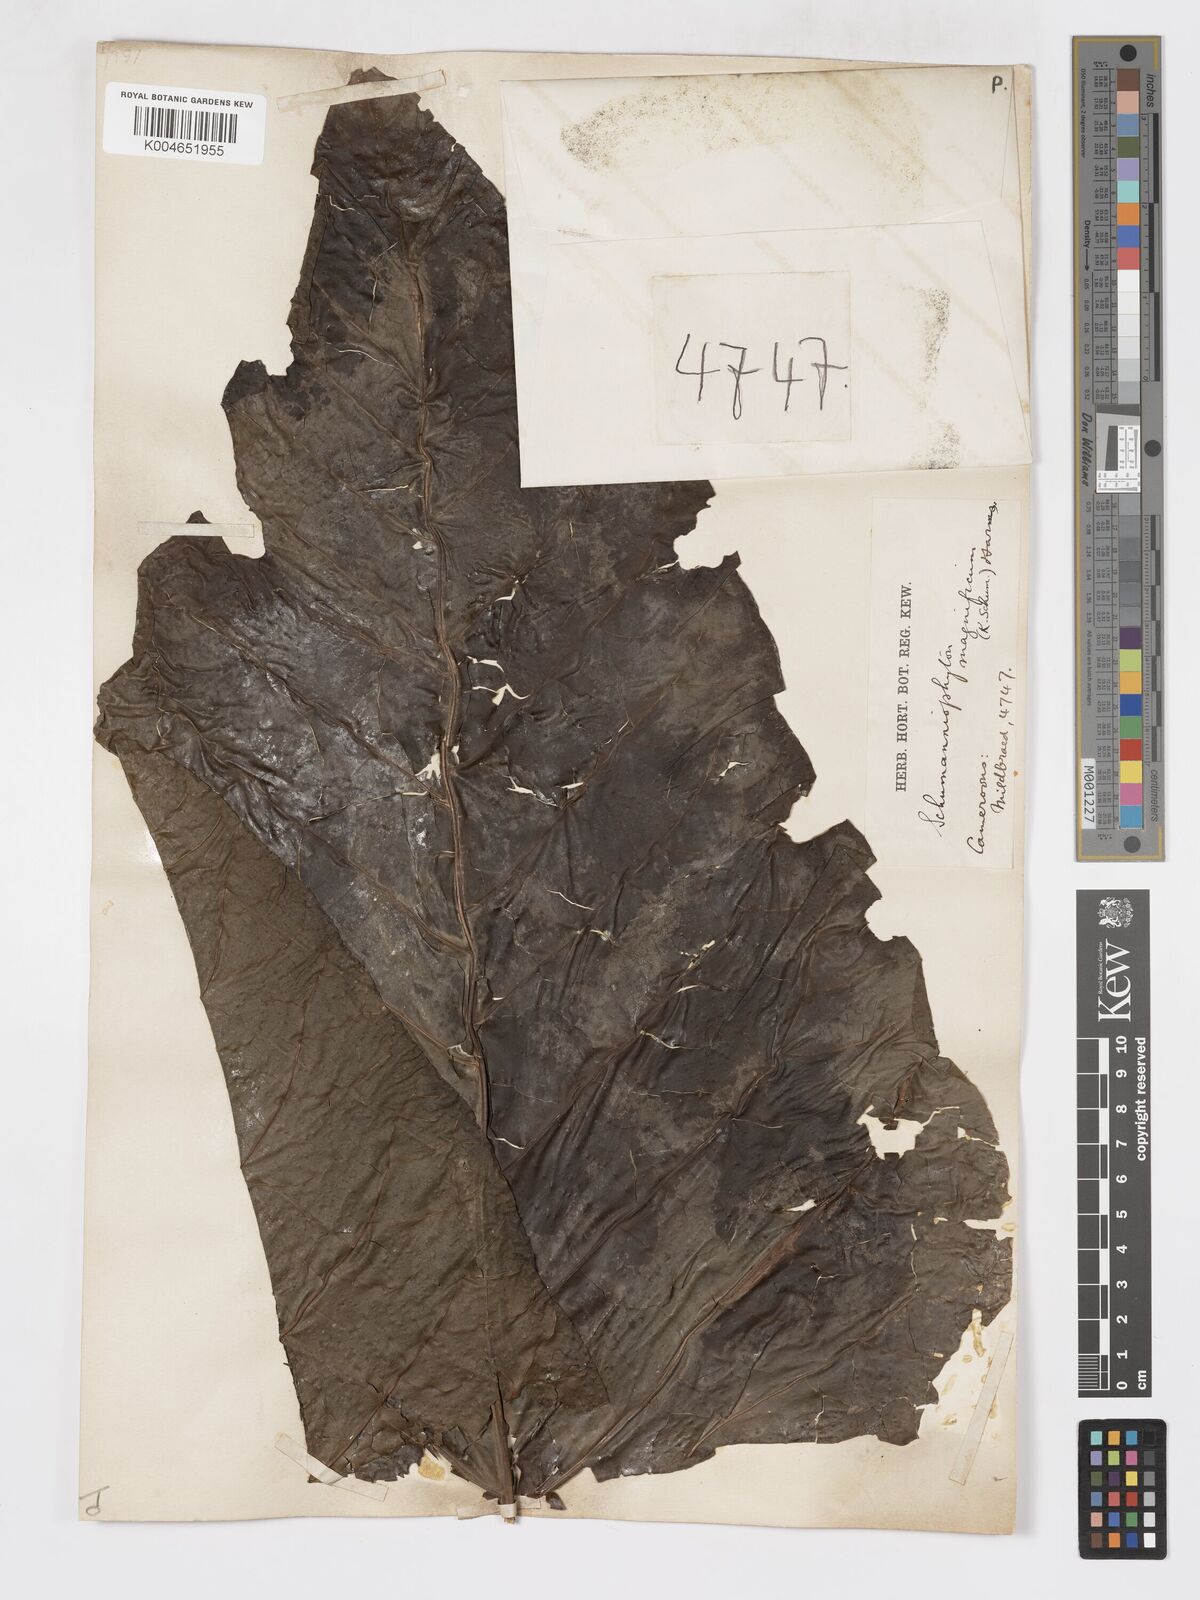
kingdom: Plantae
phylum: Tracheophyta
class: Magnoliopsida
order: Gentianales
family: Rubiaceae
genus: Schumanniophyton
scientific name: Schumanniophyton magnificum
